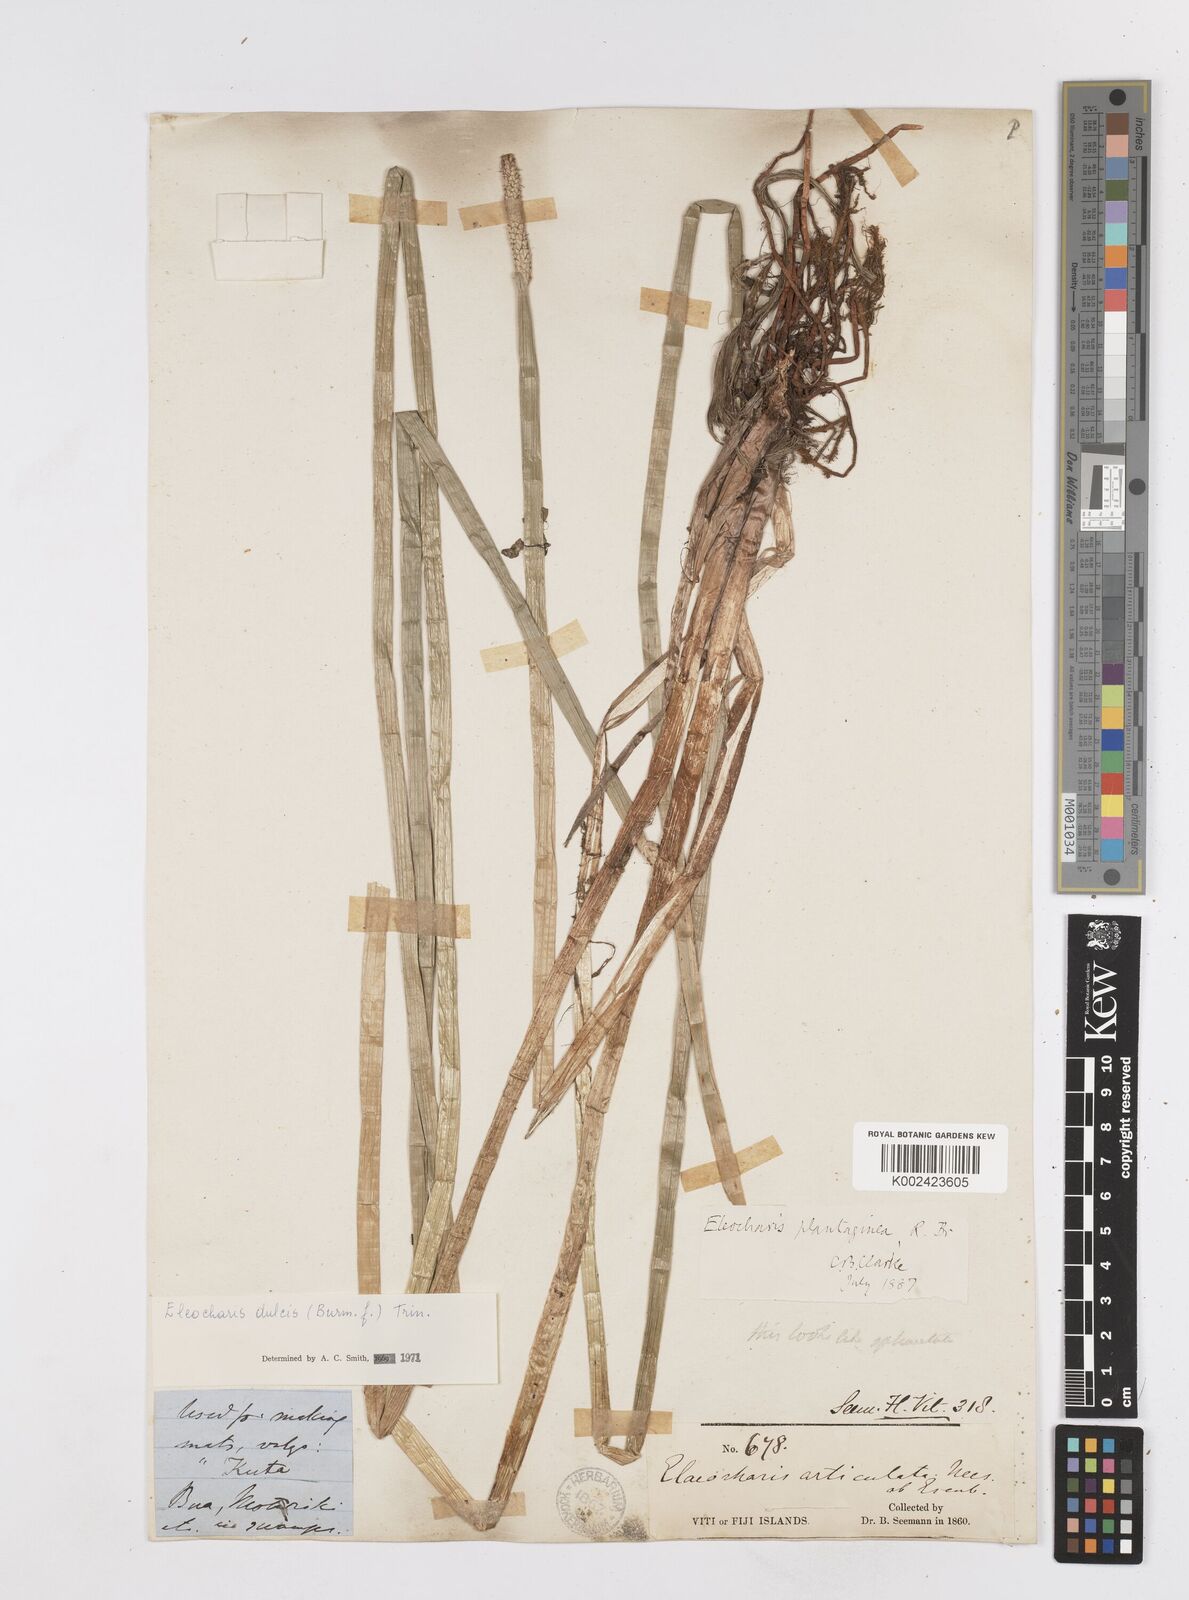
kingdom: Plantae
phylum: Tracheophyta
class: Liliopsida
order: Poales
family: Cyperaceae
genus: Eleocharis
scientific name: Eleocharis dulcis
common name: Chinese water chestnut
